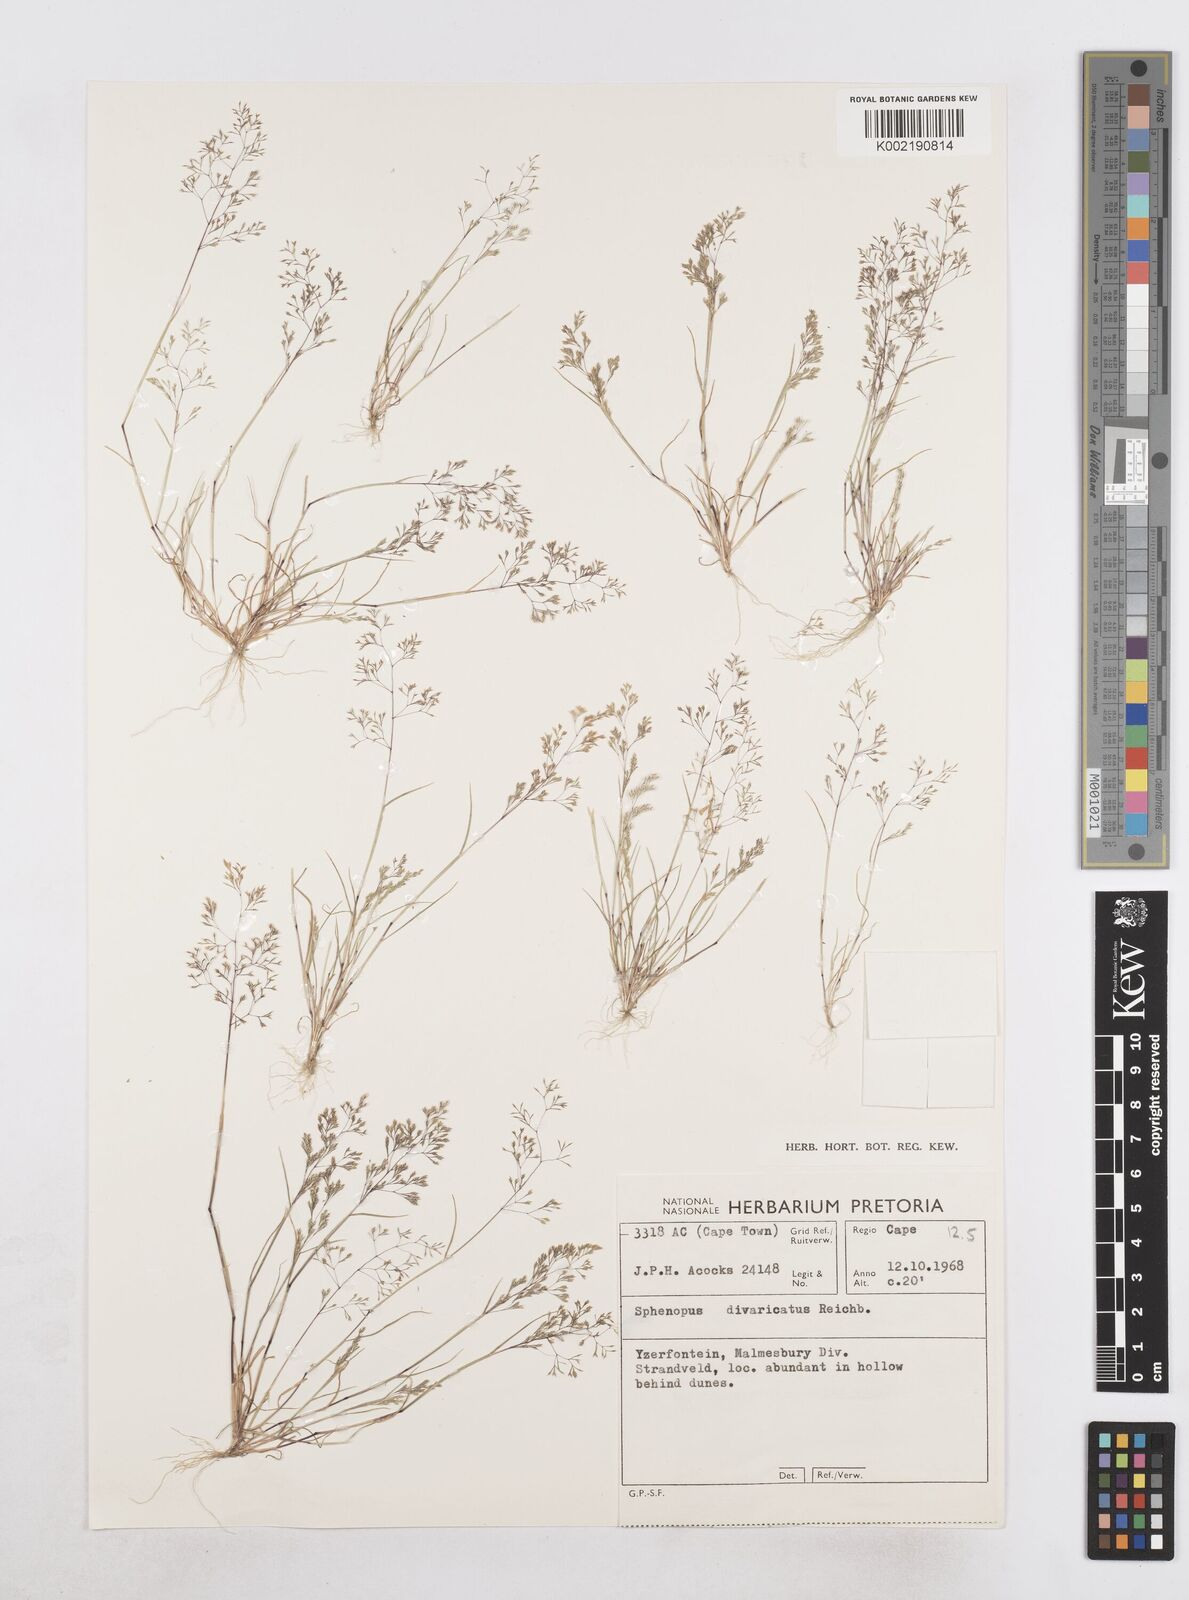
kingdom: Plantae
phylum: Tracheophyta
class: Liliopsida
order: Poales
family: Poaceae
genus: Sphenopus
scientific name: Sphenopus divaricatus
